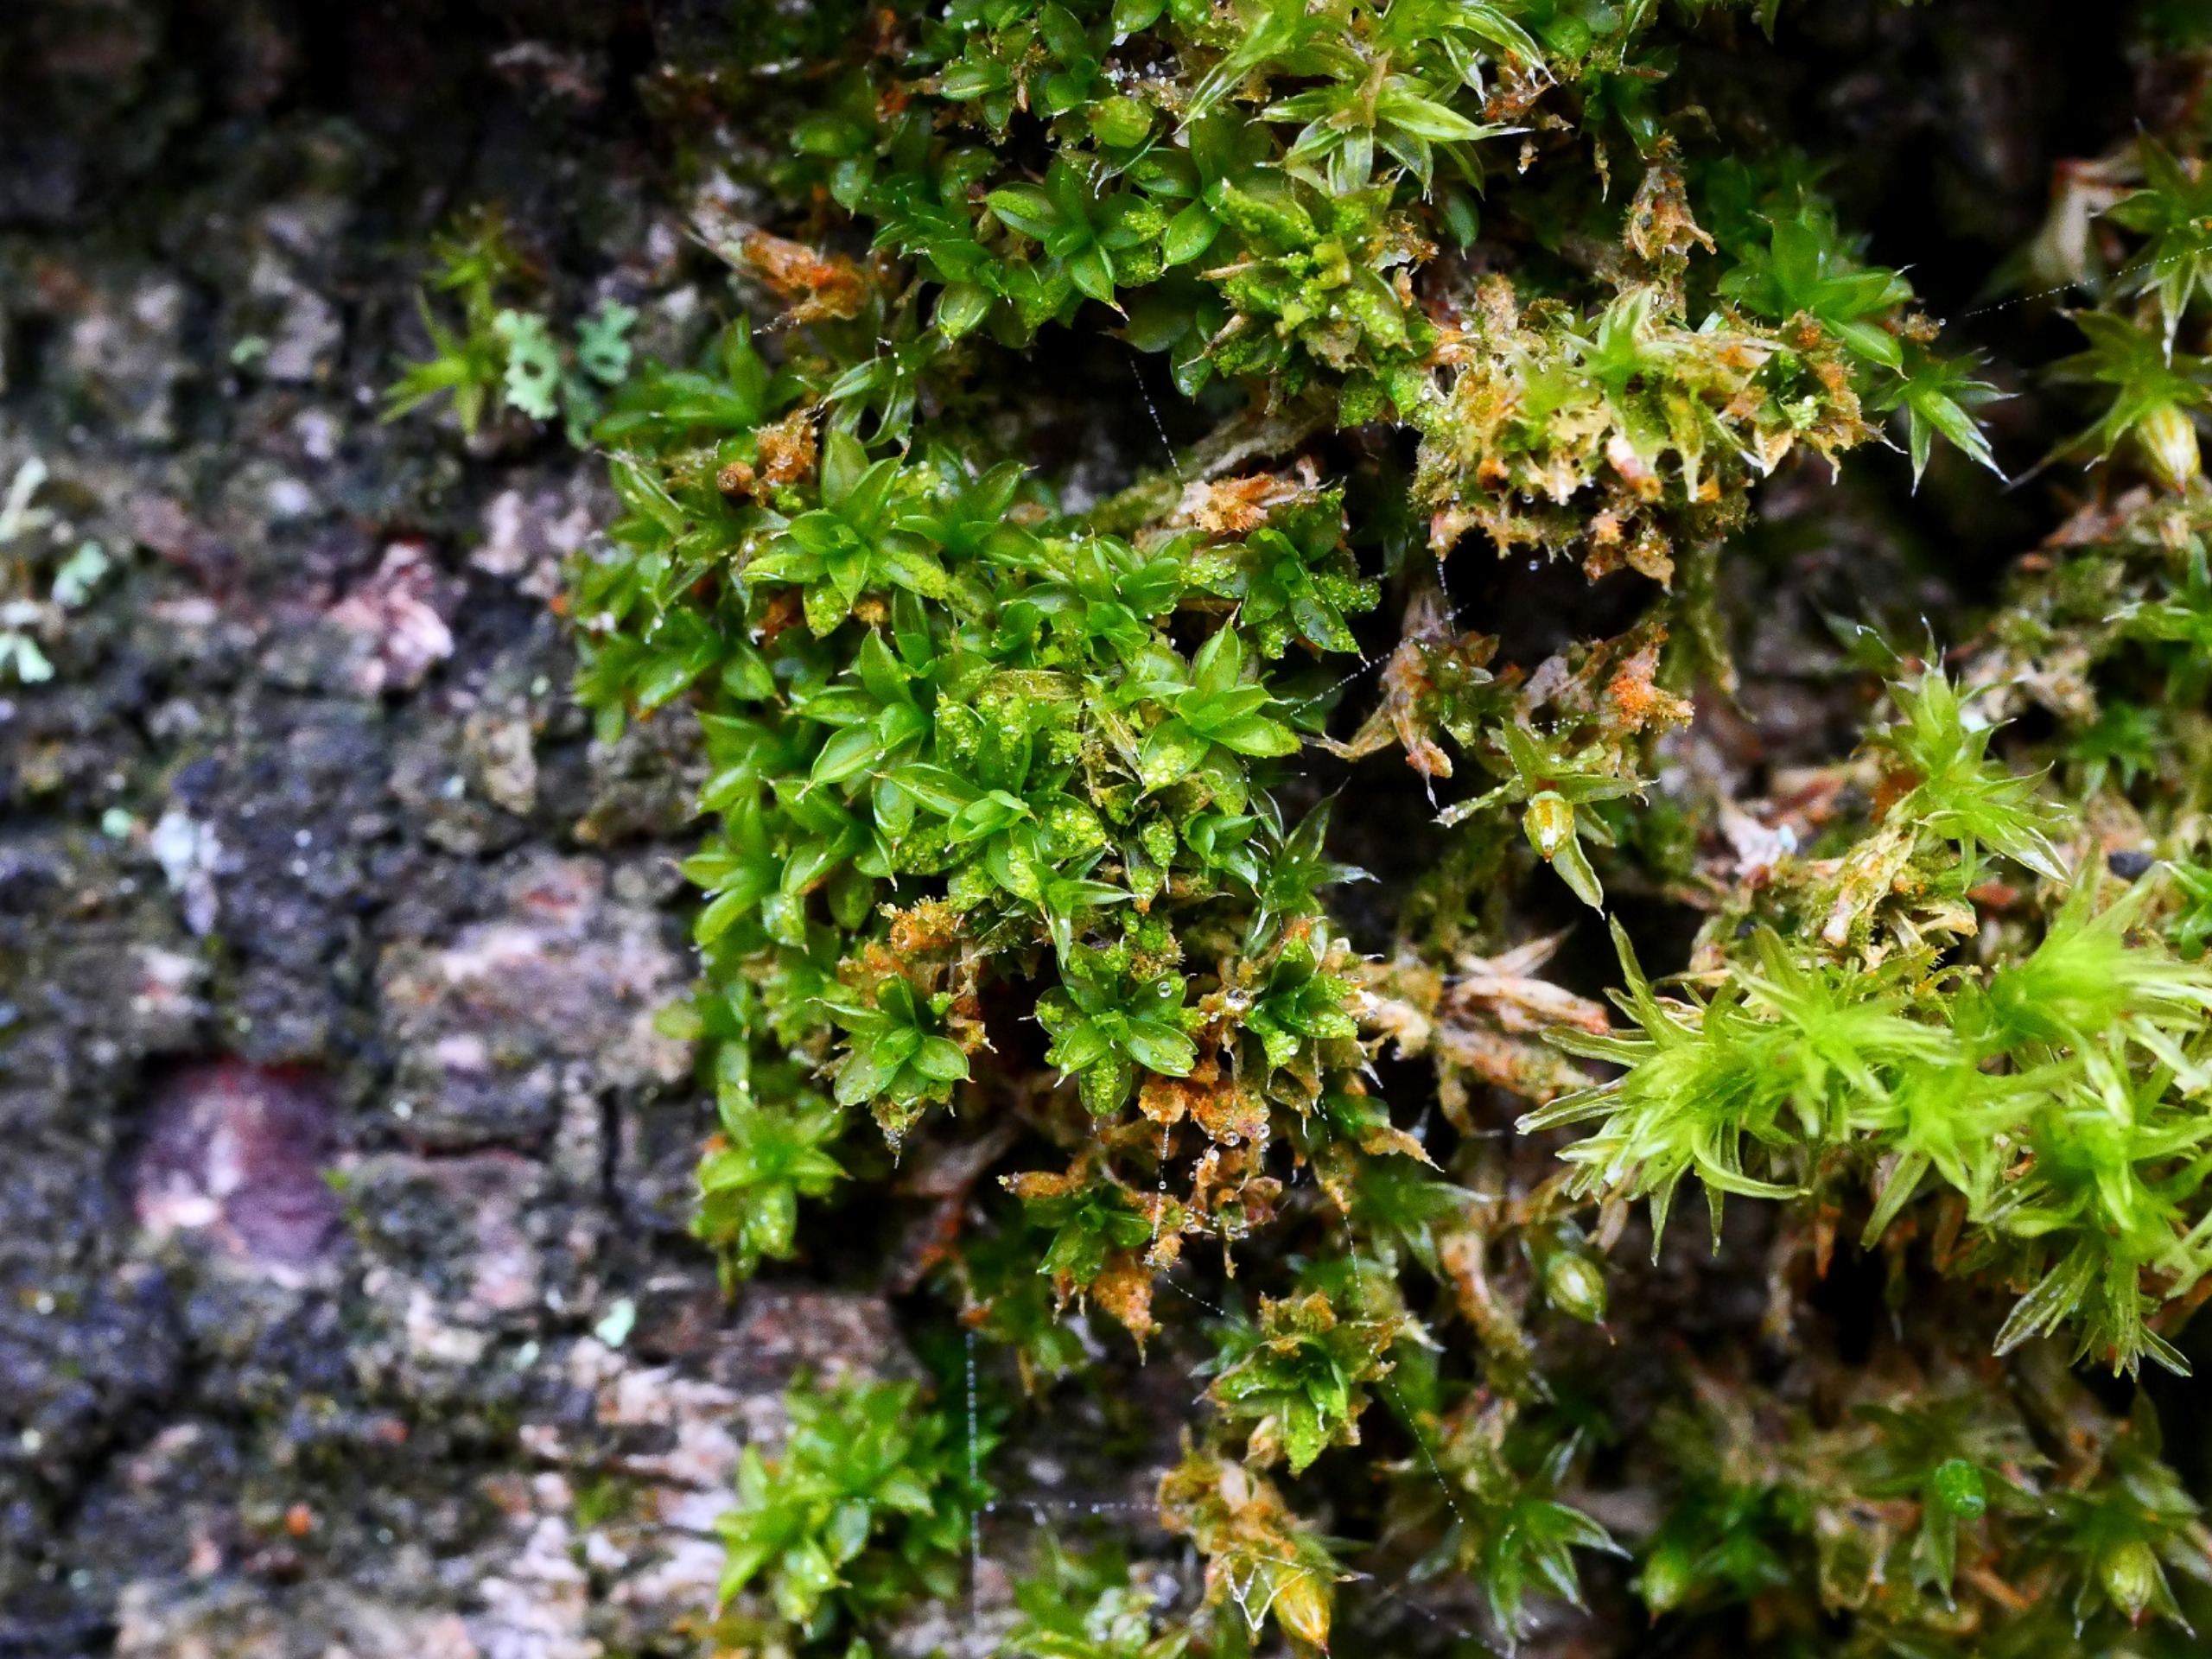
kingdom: Plantae
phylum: Bryophyta
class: Bryopsida
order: Pottiales
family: Pottiaceae
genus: Syntrichia
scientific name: Syntrichia papillosa
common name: Bark-hårstjerne
